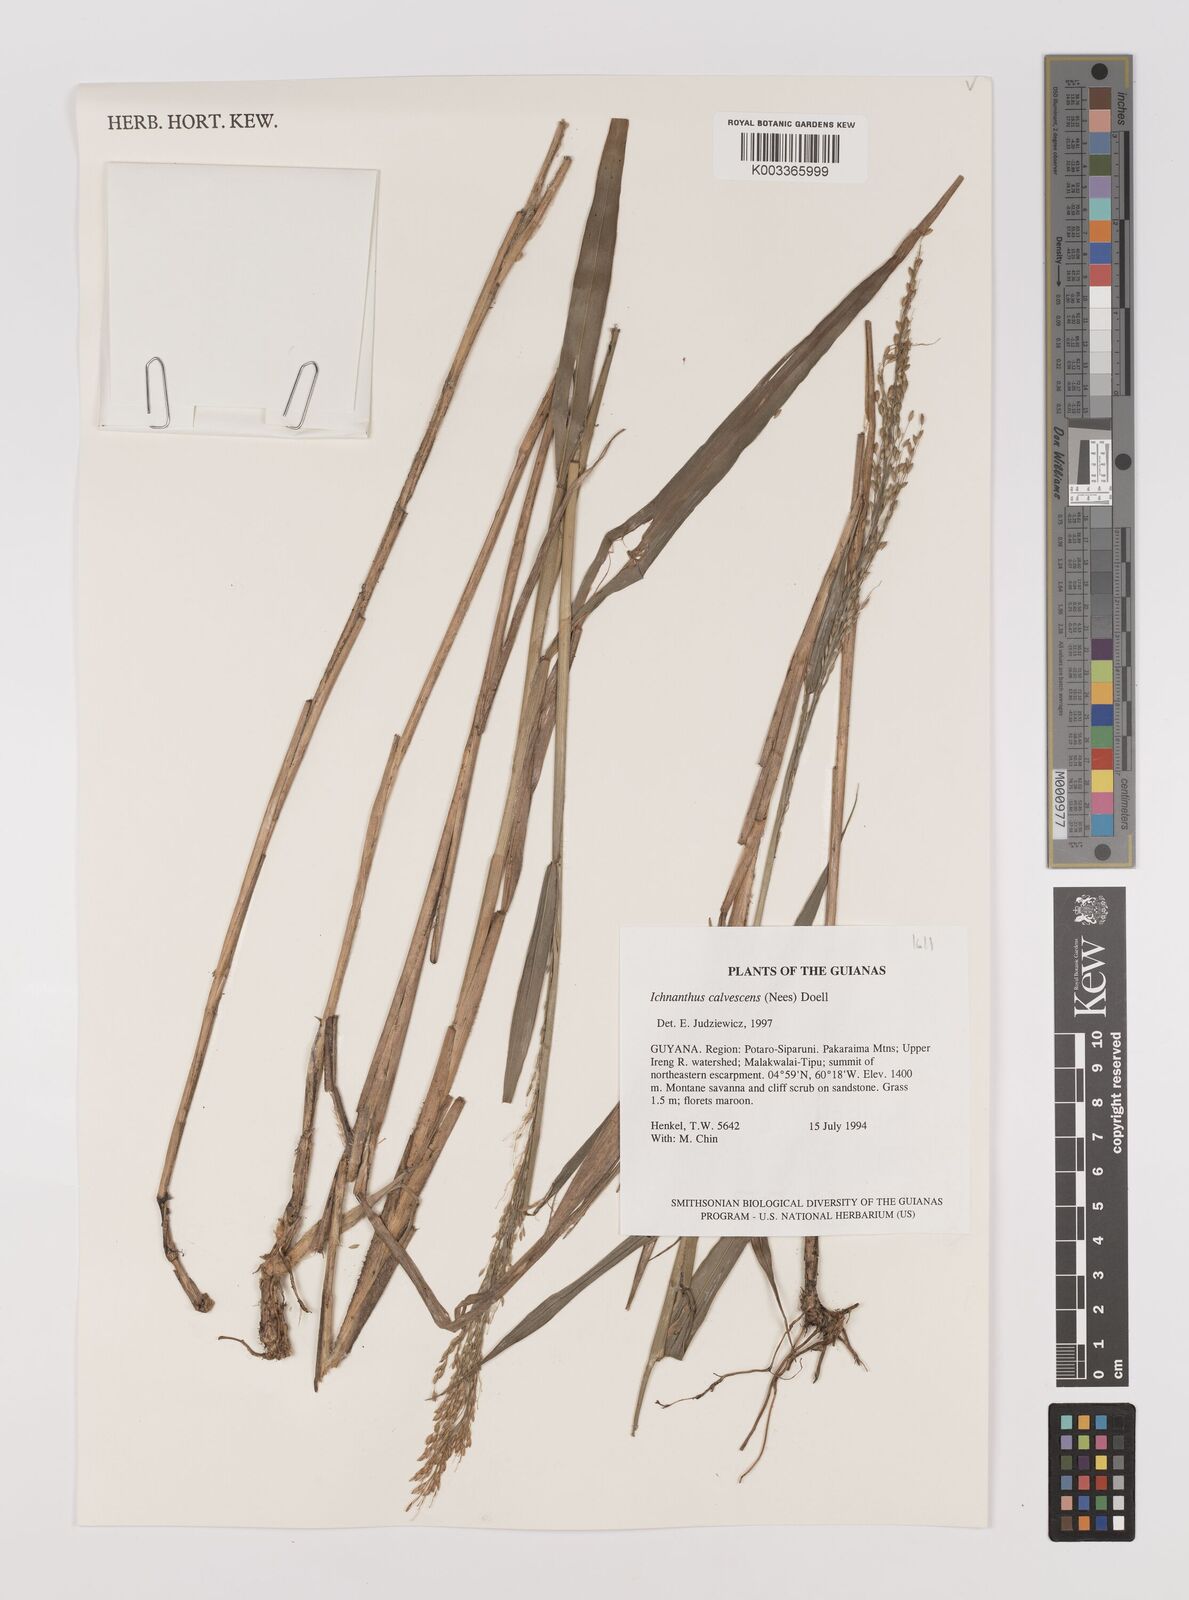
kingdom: Plantae
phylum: Tracheophyta
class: Liliopsida
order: Poales
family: Poaceae
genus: Ichnanthus
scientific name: Ichnanthus calvescens
